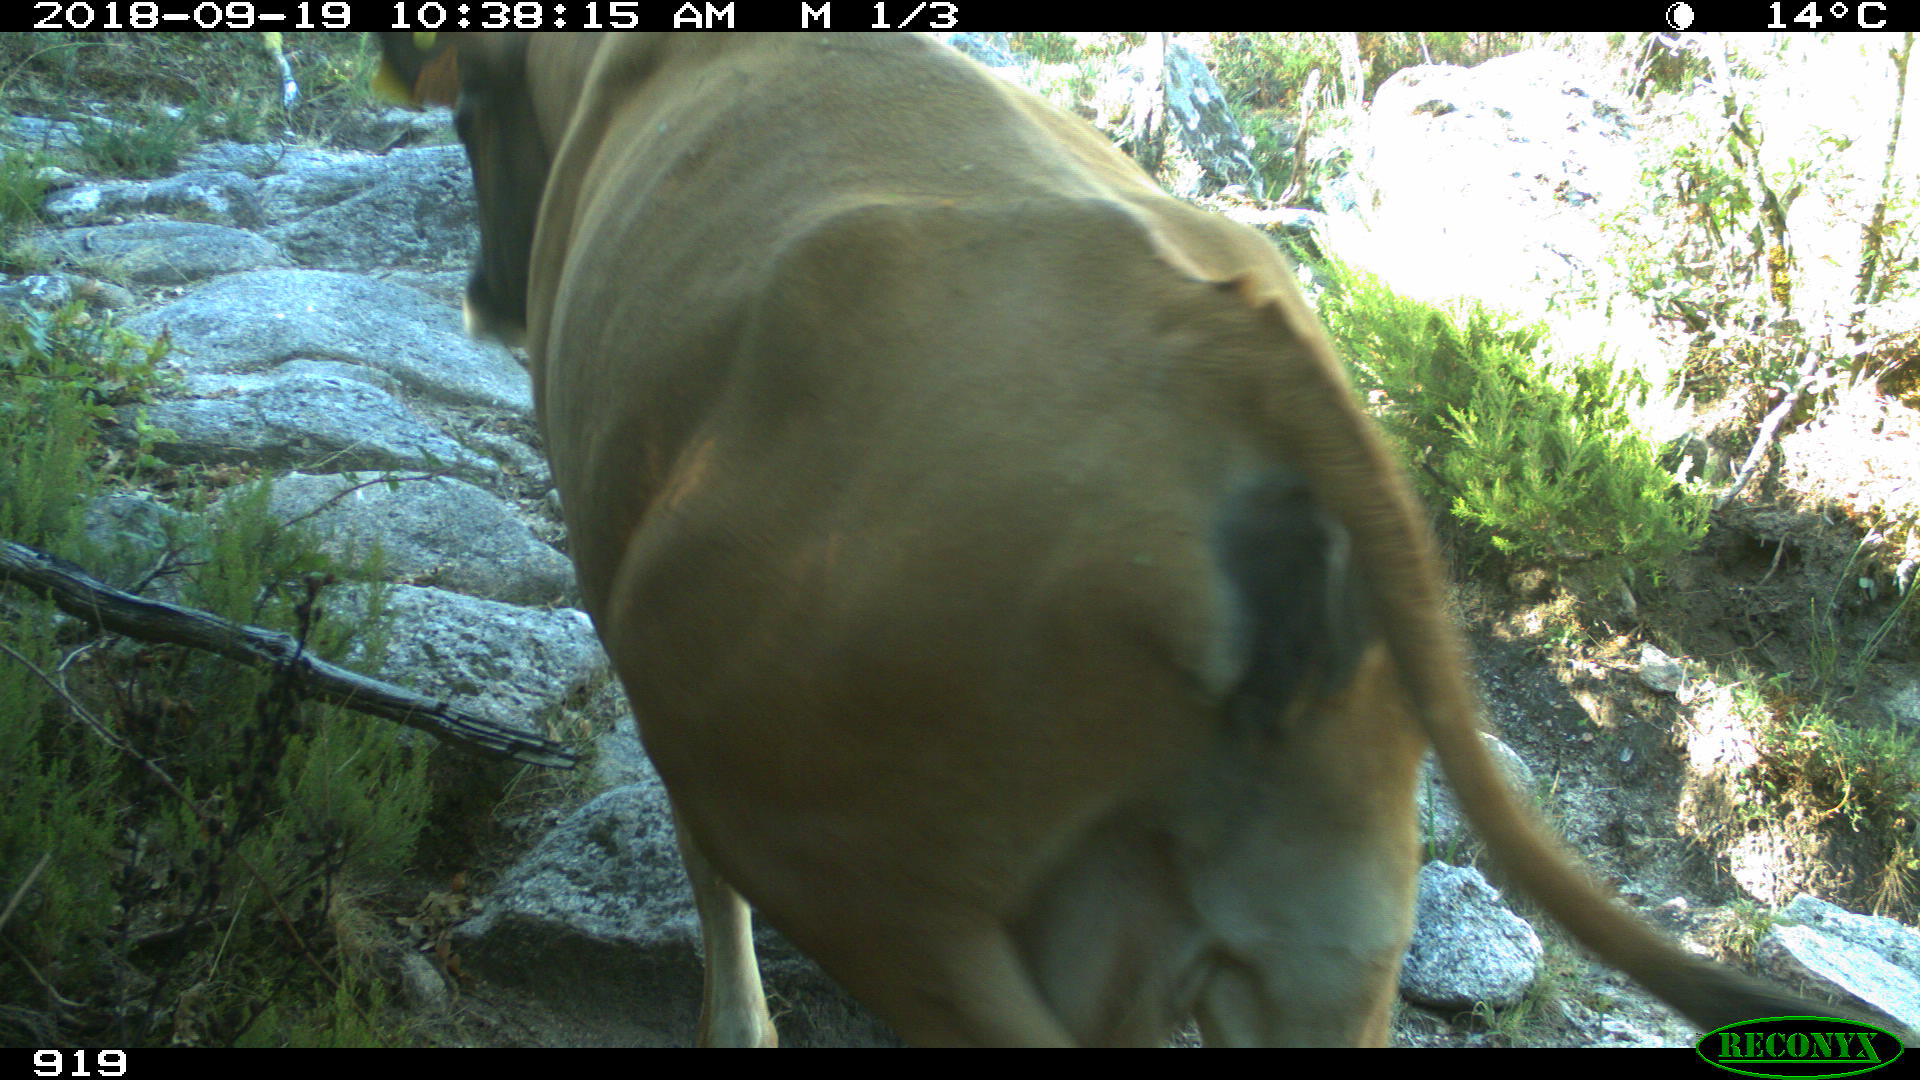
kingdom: Animalia
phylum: Chordata
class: Mammalia
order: Artiodactyla
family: Bovidae
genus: Bos
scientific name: Bos taurus
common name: Domesticated cattle
